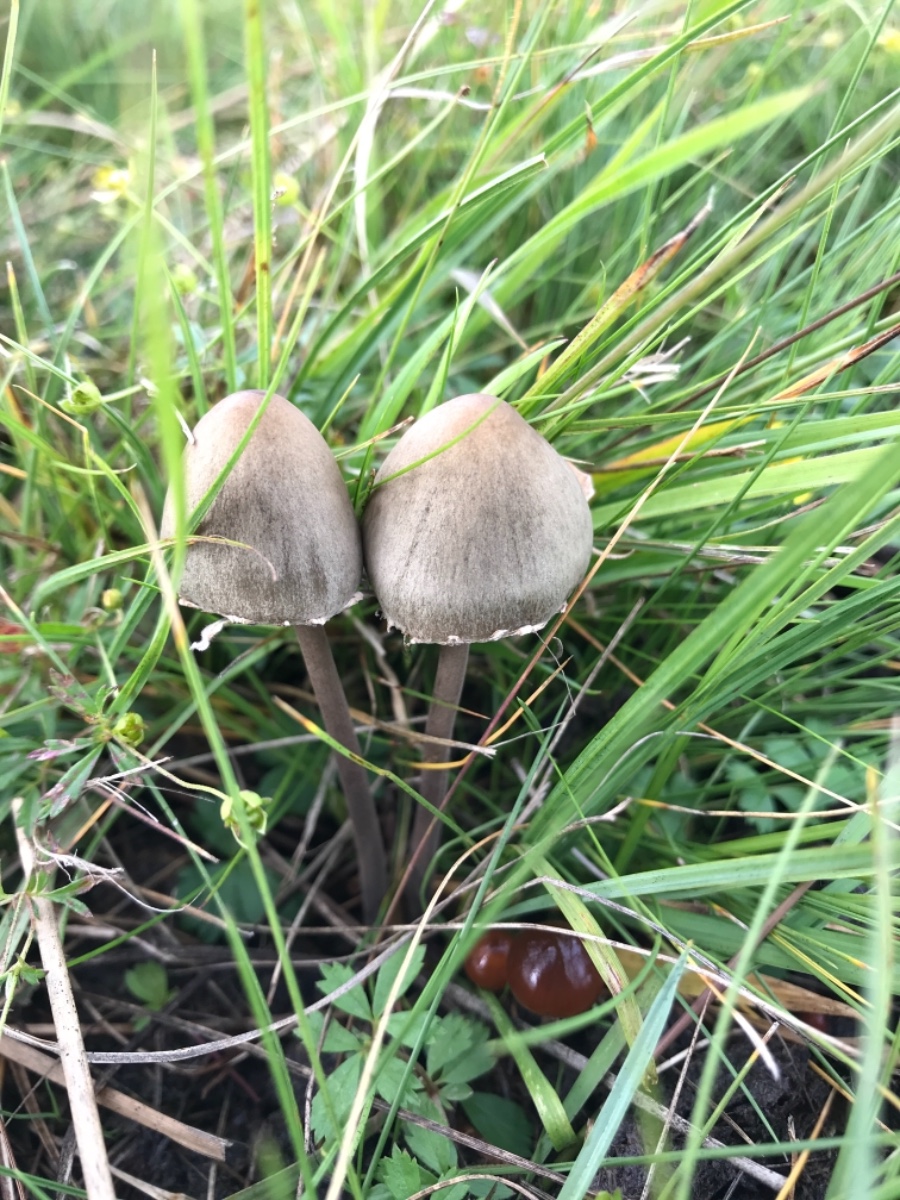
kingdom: Fungi
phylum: Basidiomycota
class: Agaricomycetes
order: Agaricales
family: Bolbitiaceae
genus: Panaeolus
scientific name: Panaeolus papilionaceus
